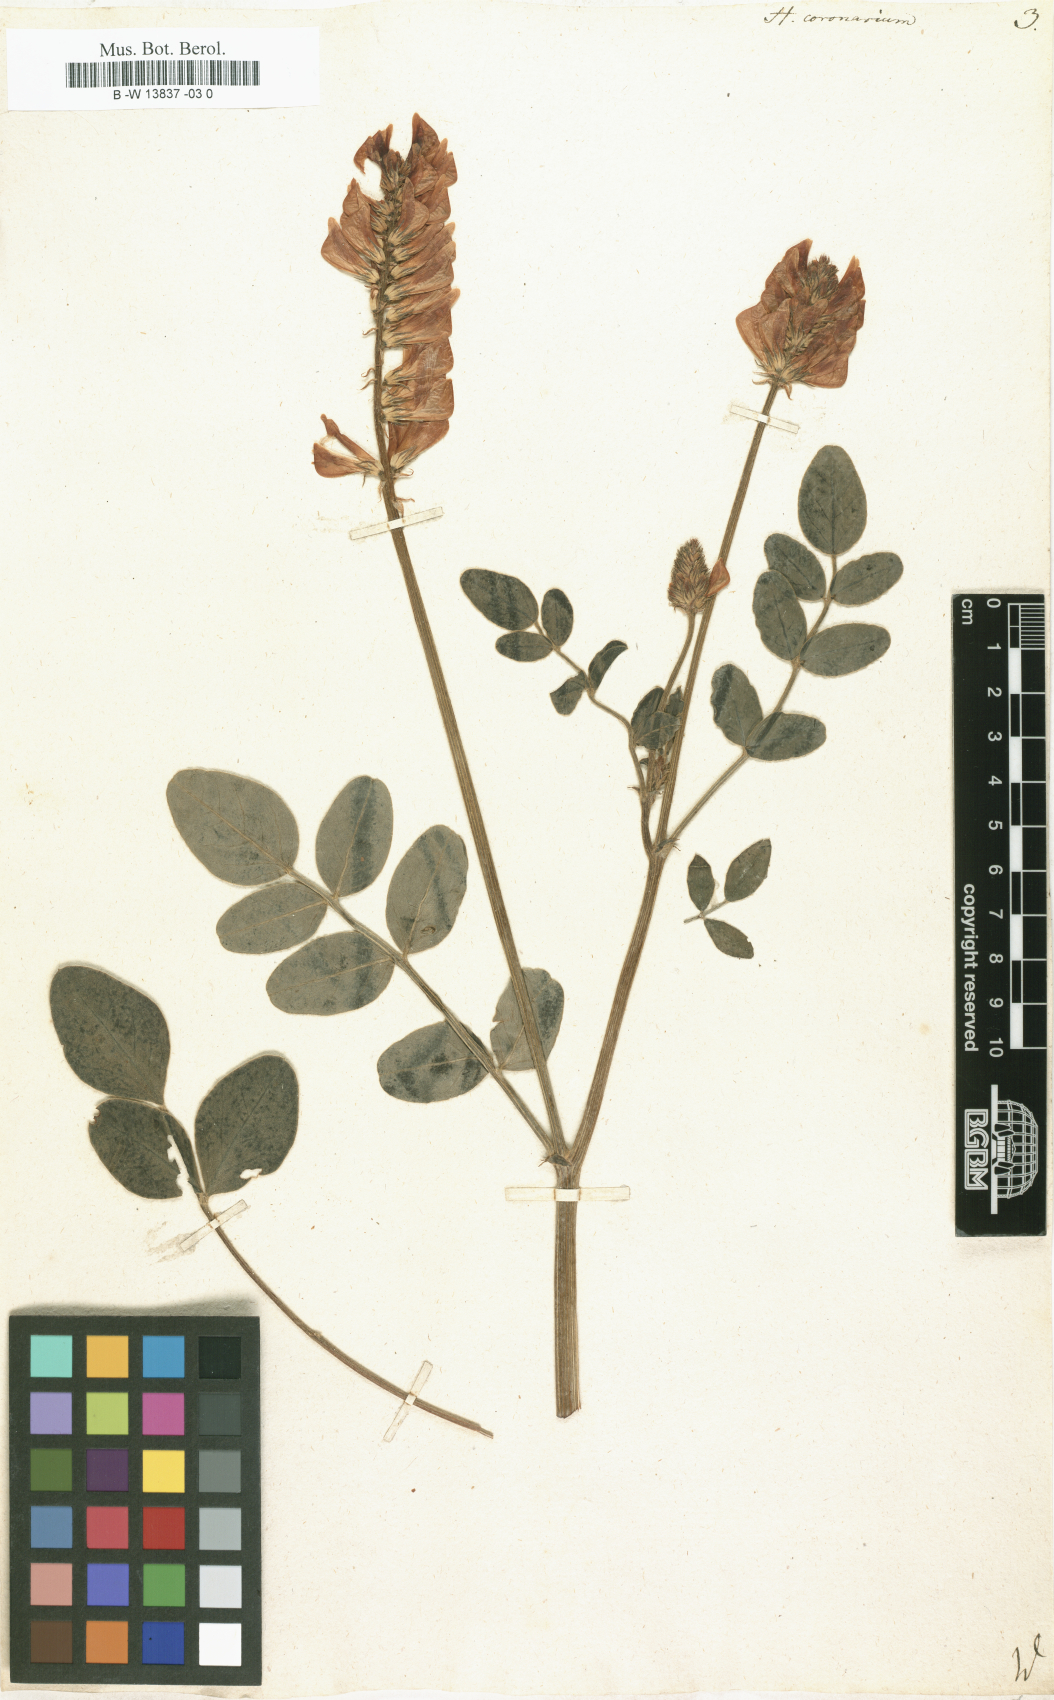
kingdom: Plantae
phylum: Tracheophyta
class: Magnoliopsida
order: Fabales
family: Fabaceae
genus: Sulla
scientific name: Sulla coronaria
